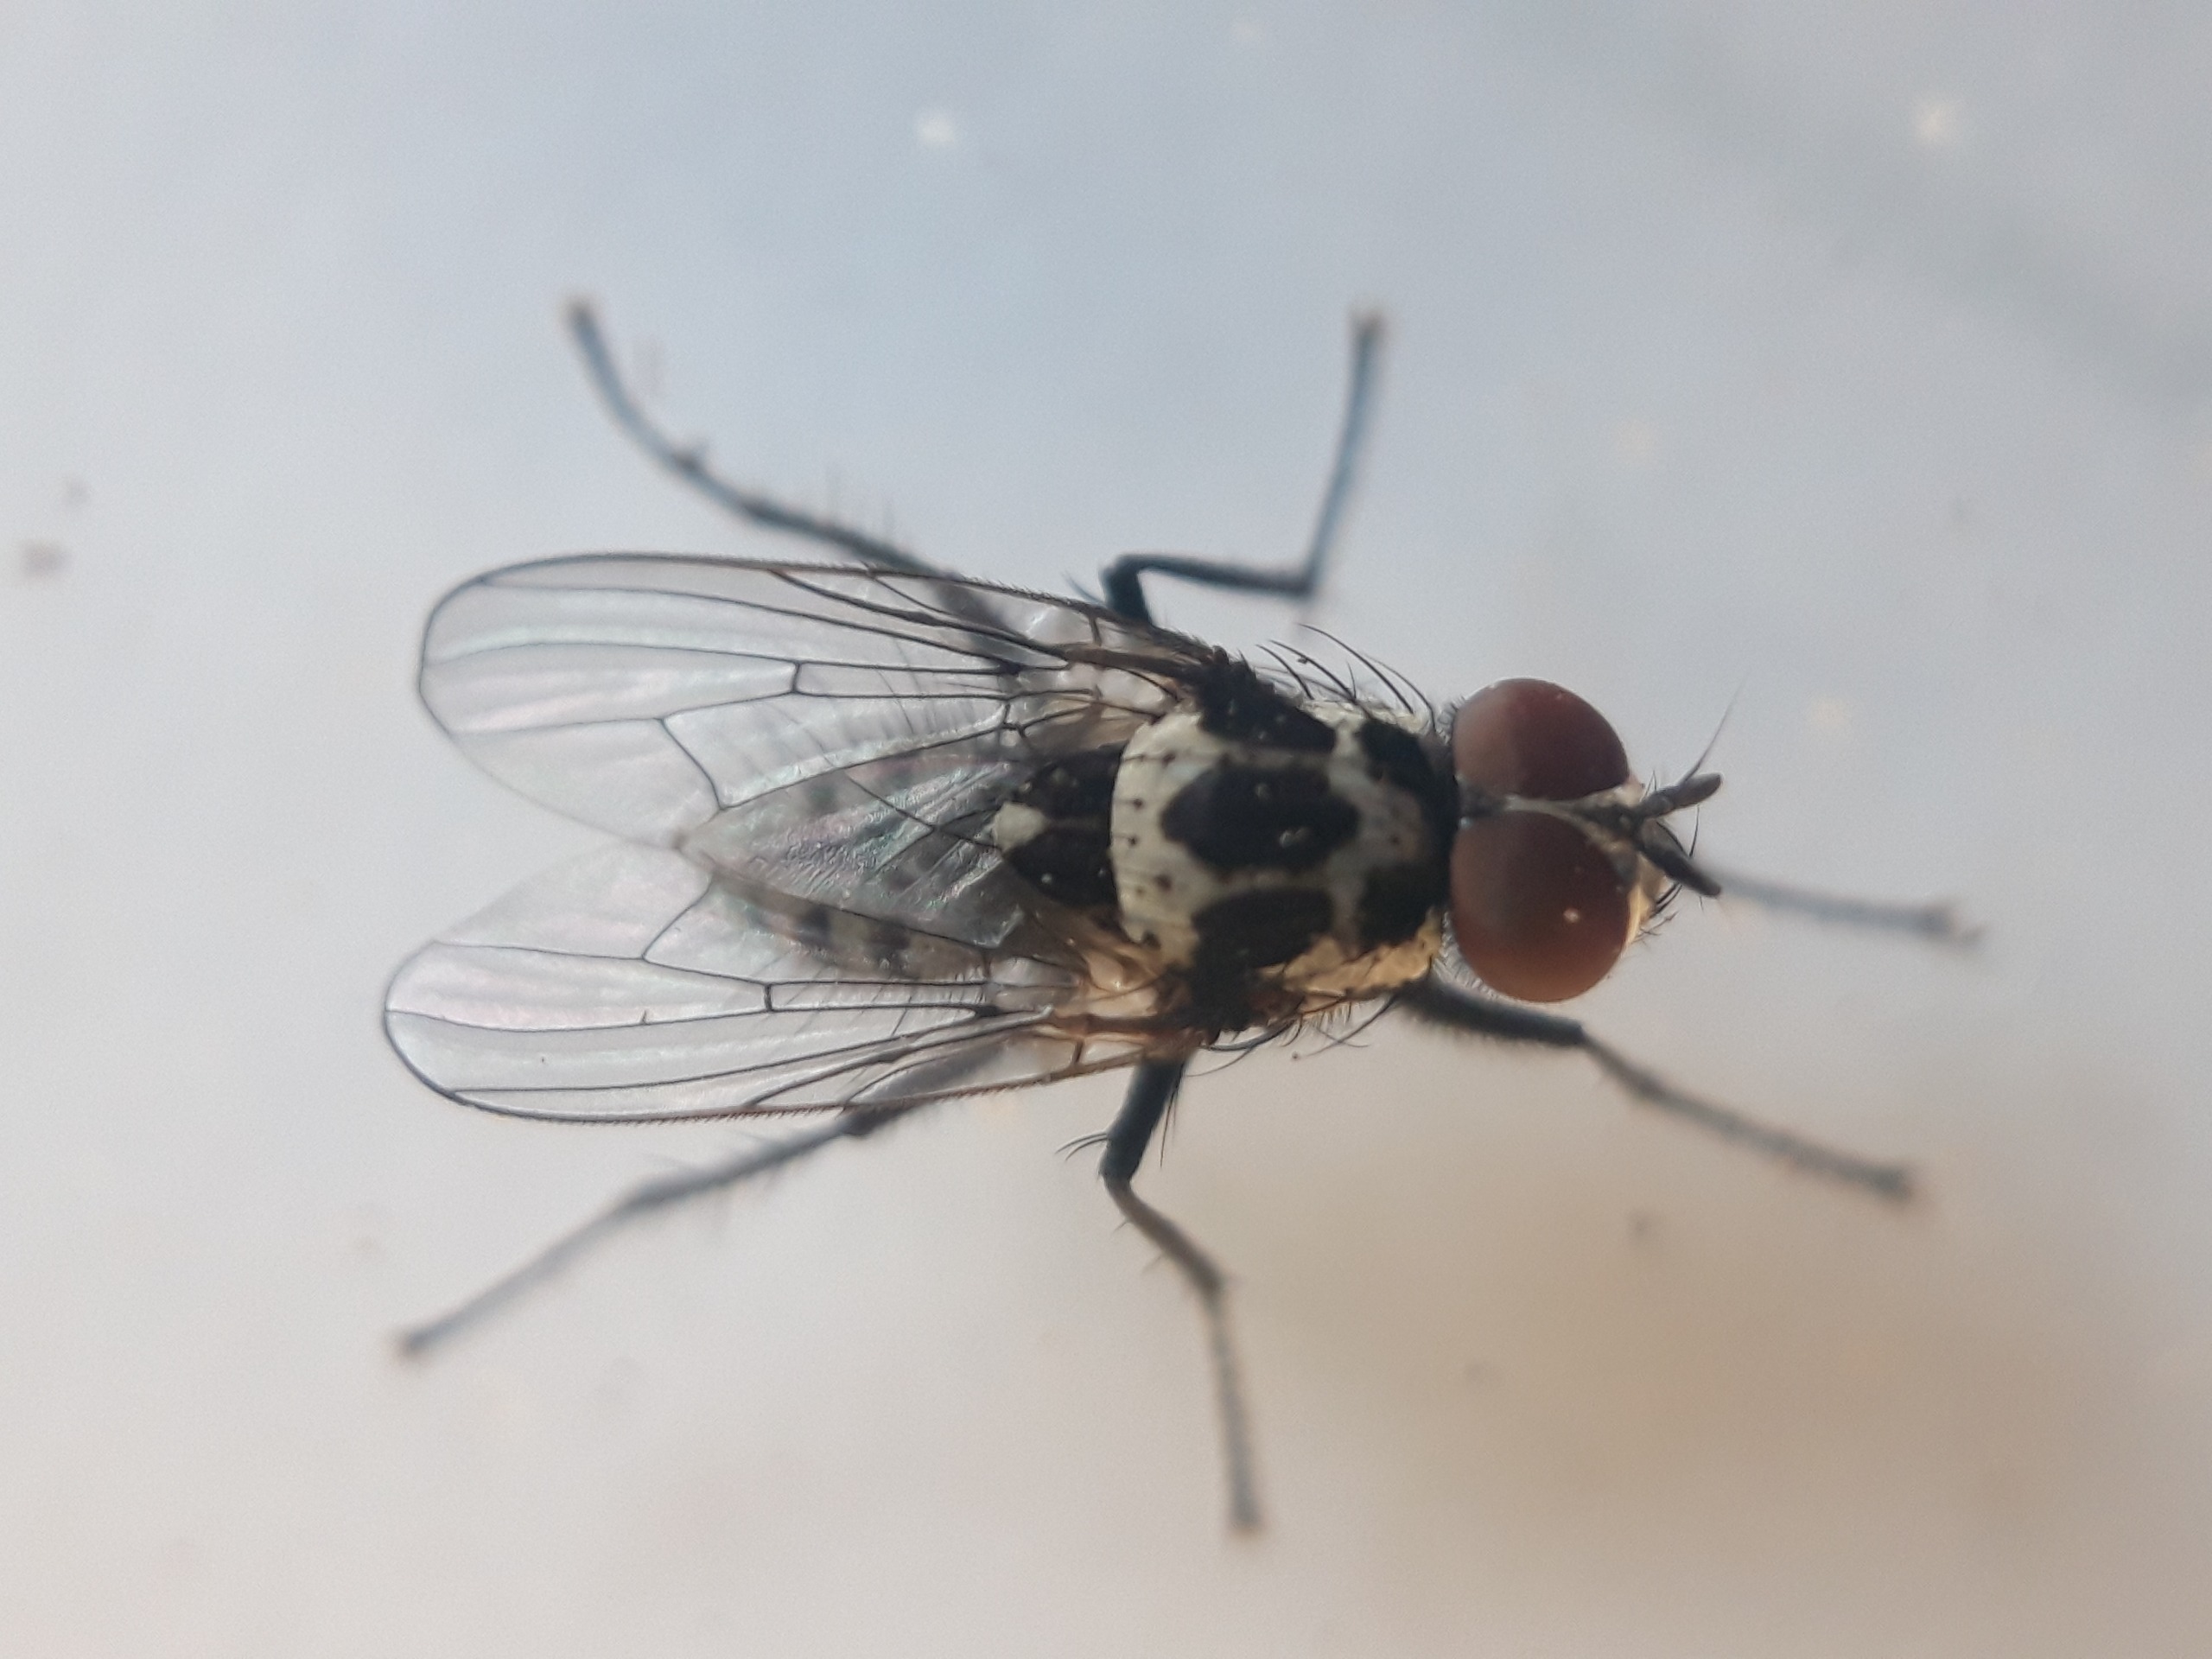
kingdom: Animalia
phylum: Arthropoda
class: Insecta
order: Diptera
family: Anthomyiidae
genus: Anthomyia
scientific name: Anthomyia procellaris
